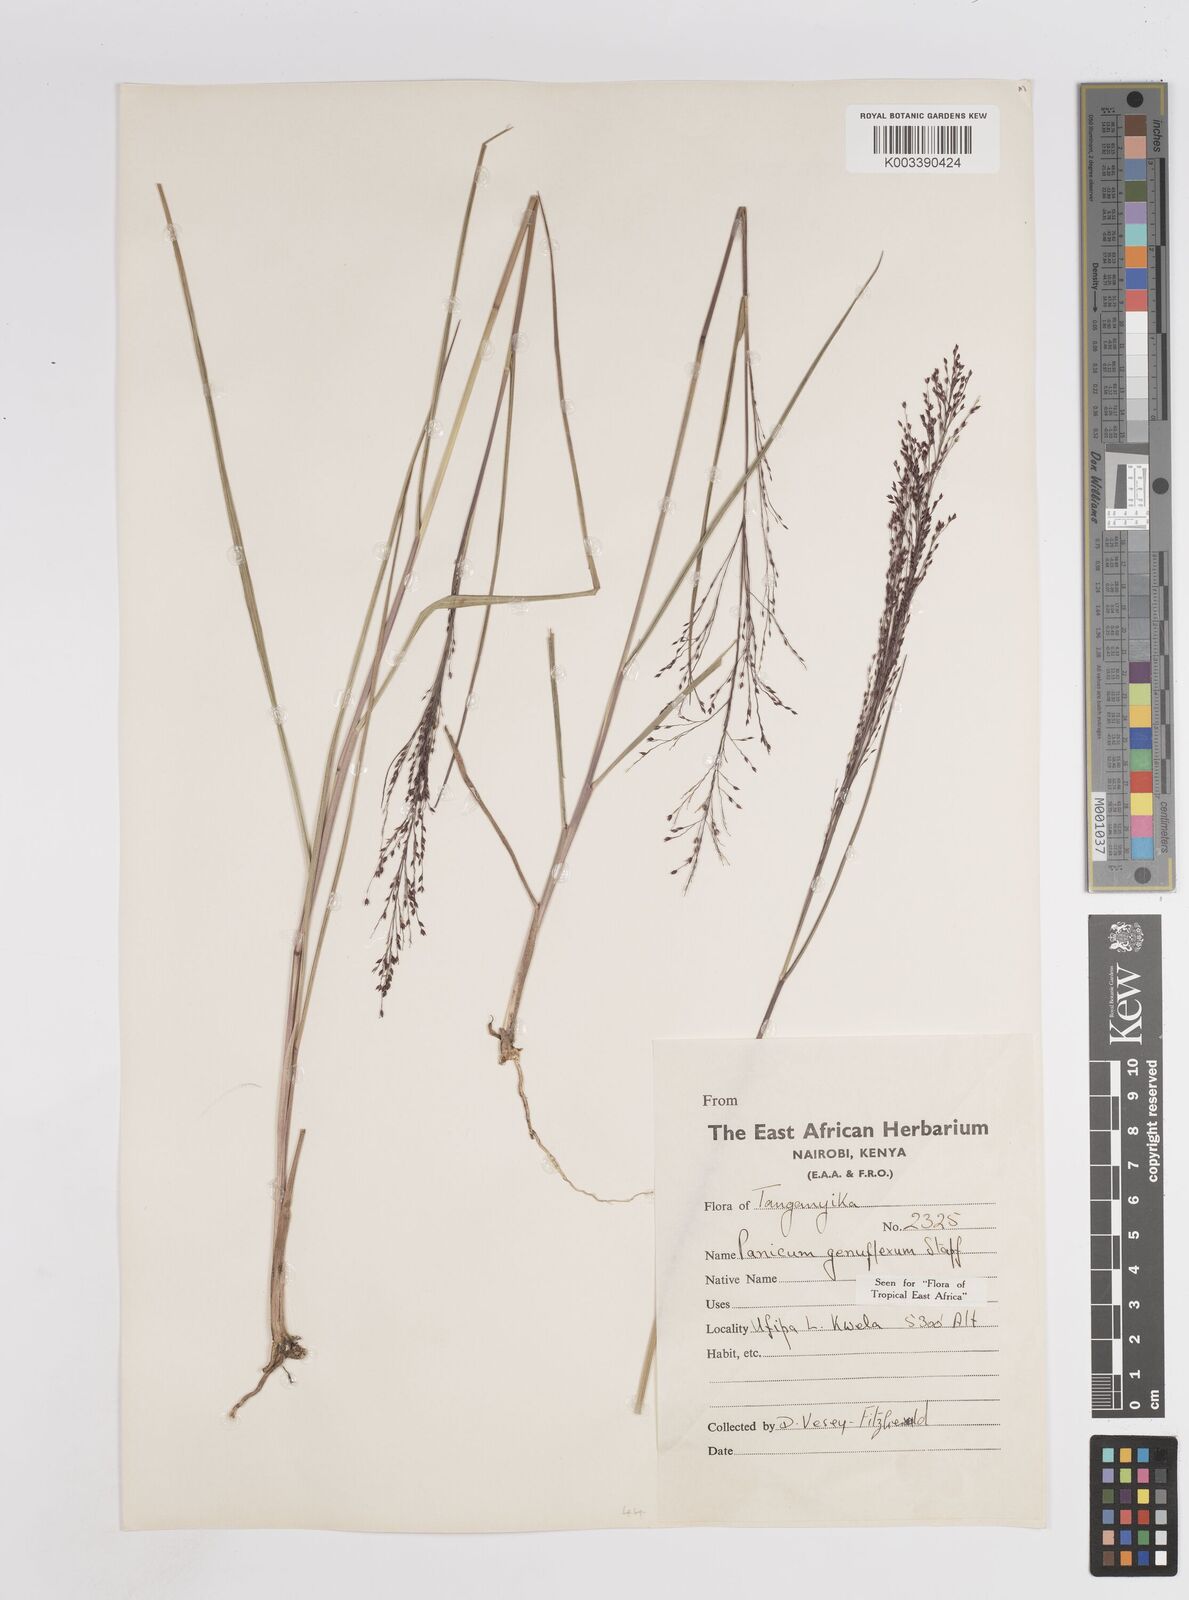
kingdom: Plantae
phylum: Tracheophyta
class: Liliopsida
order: Poales
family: Poaceae
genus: Panicum
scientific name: Panicum fluviicola
